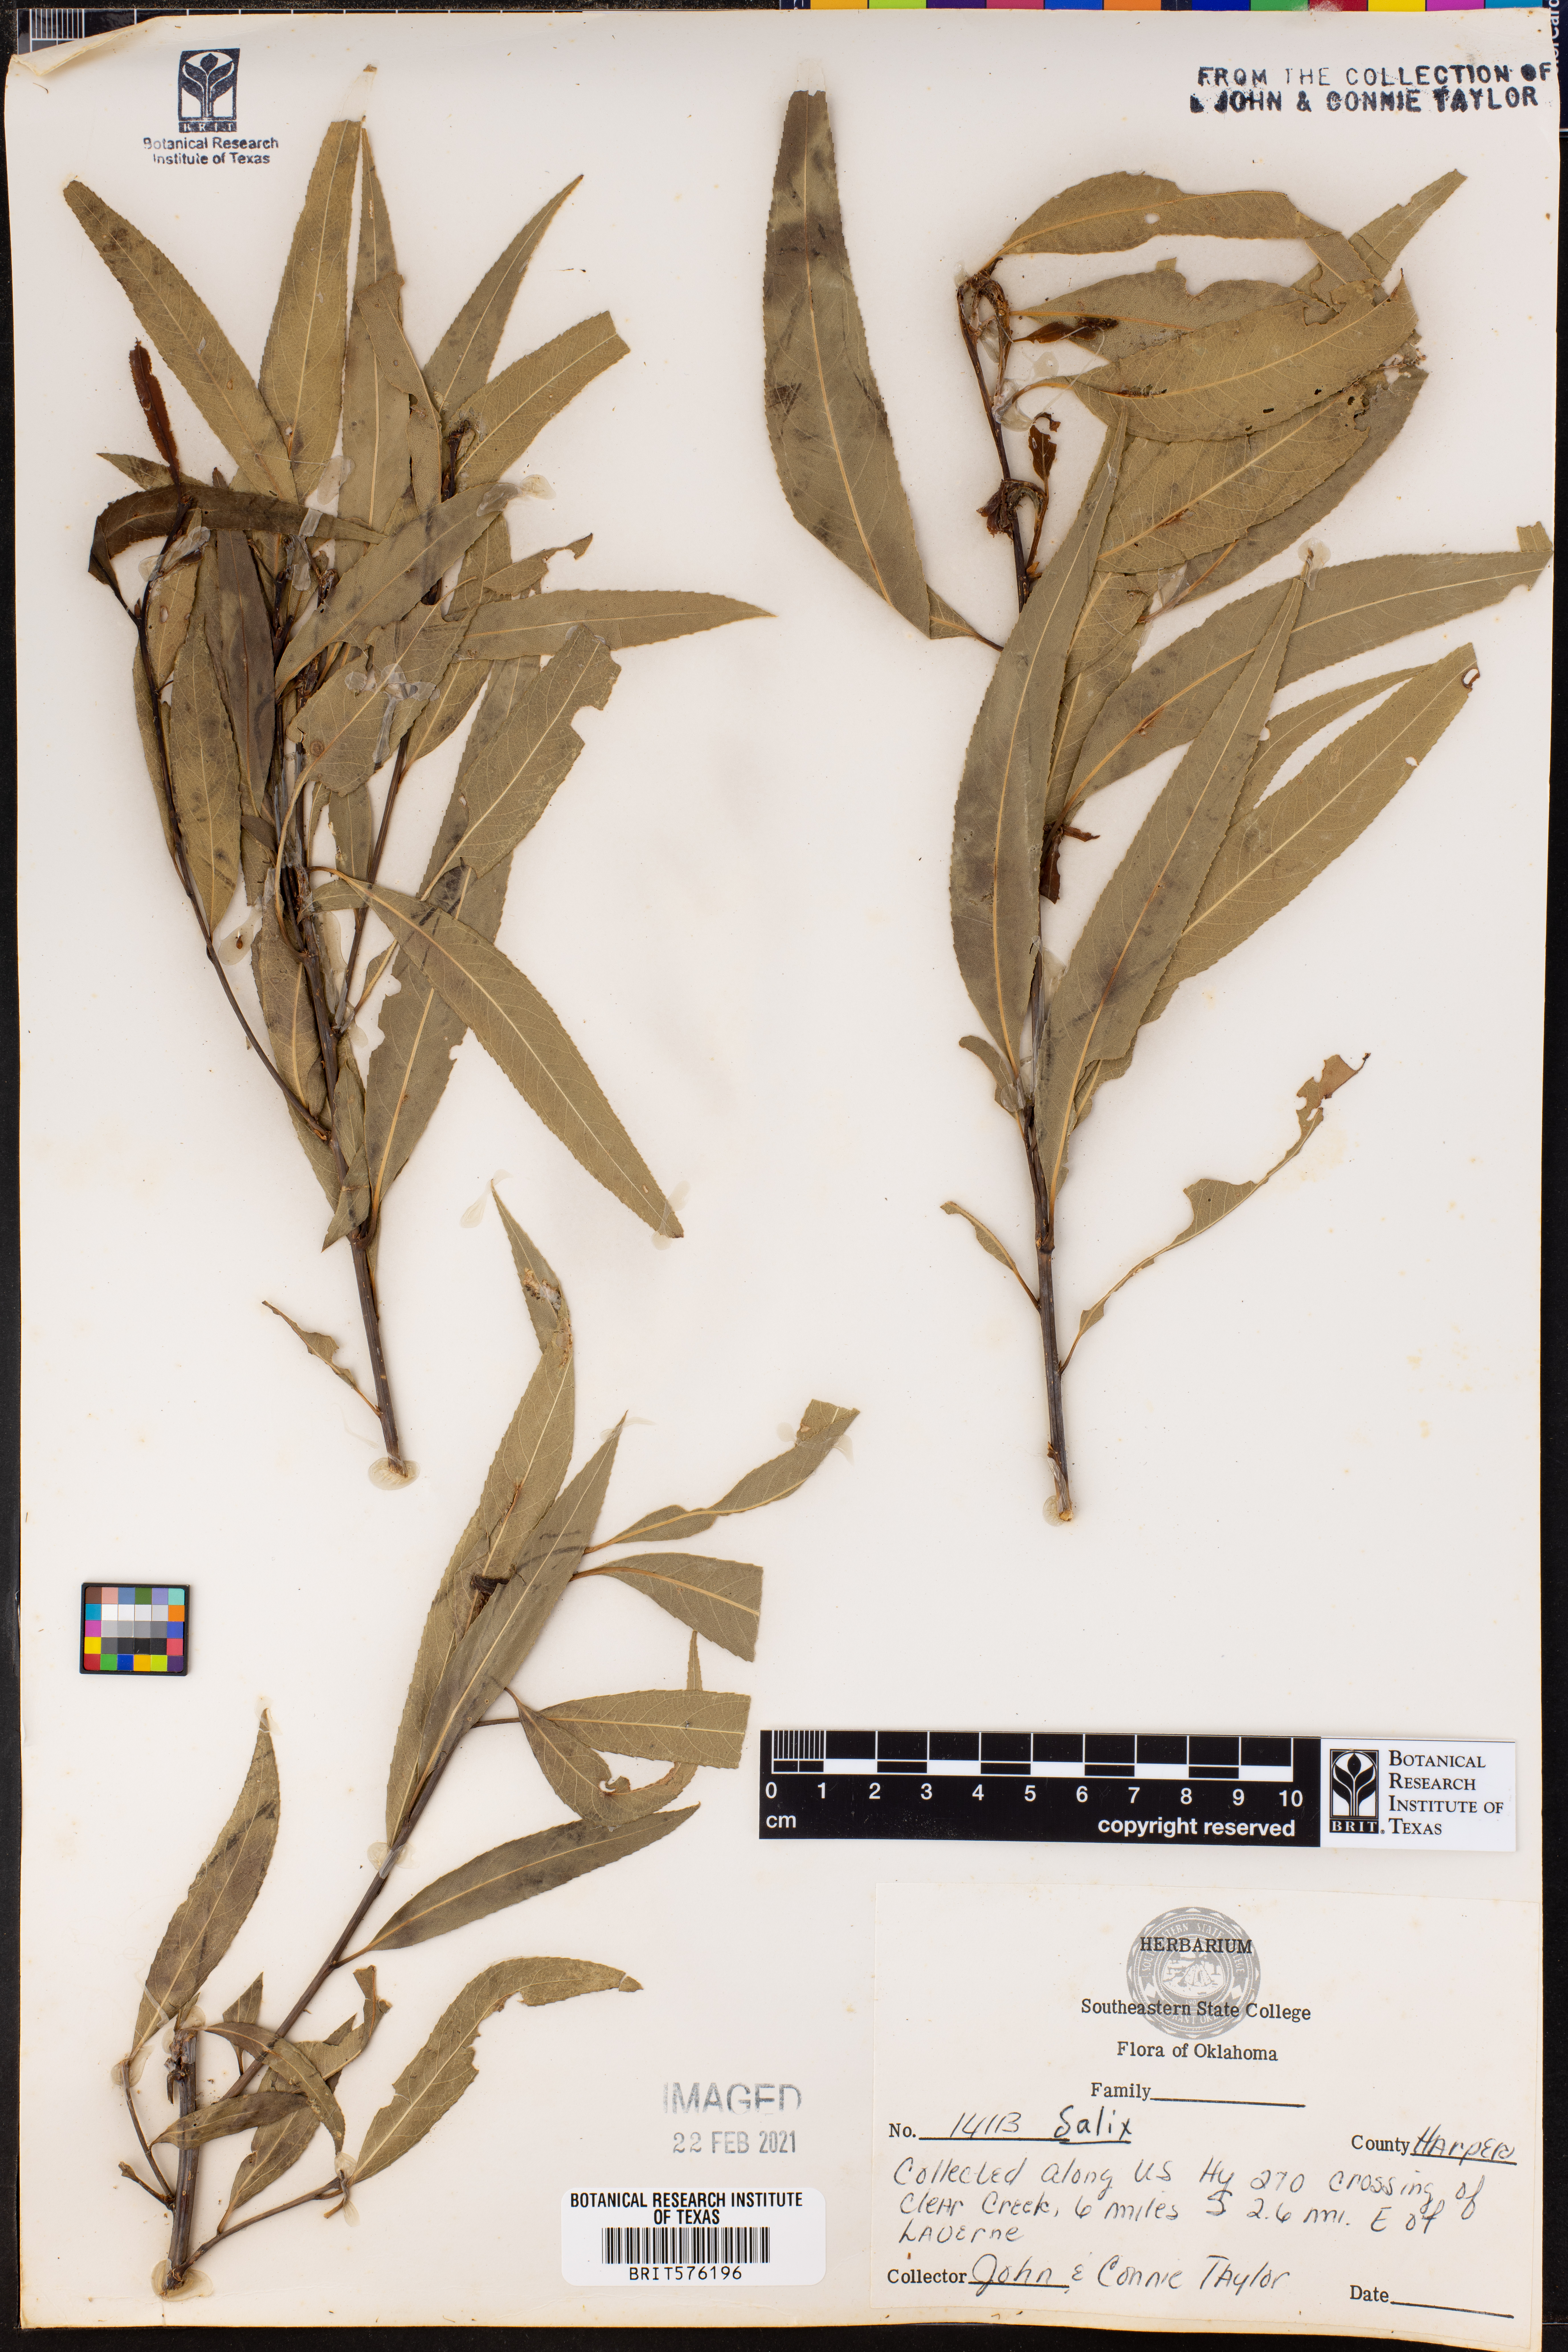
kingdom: Plantae
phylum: Tracheophyta
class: Magnoliopsida
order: Malpighiales
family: Salicaceae
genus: Salix
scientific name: Salix
